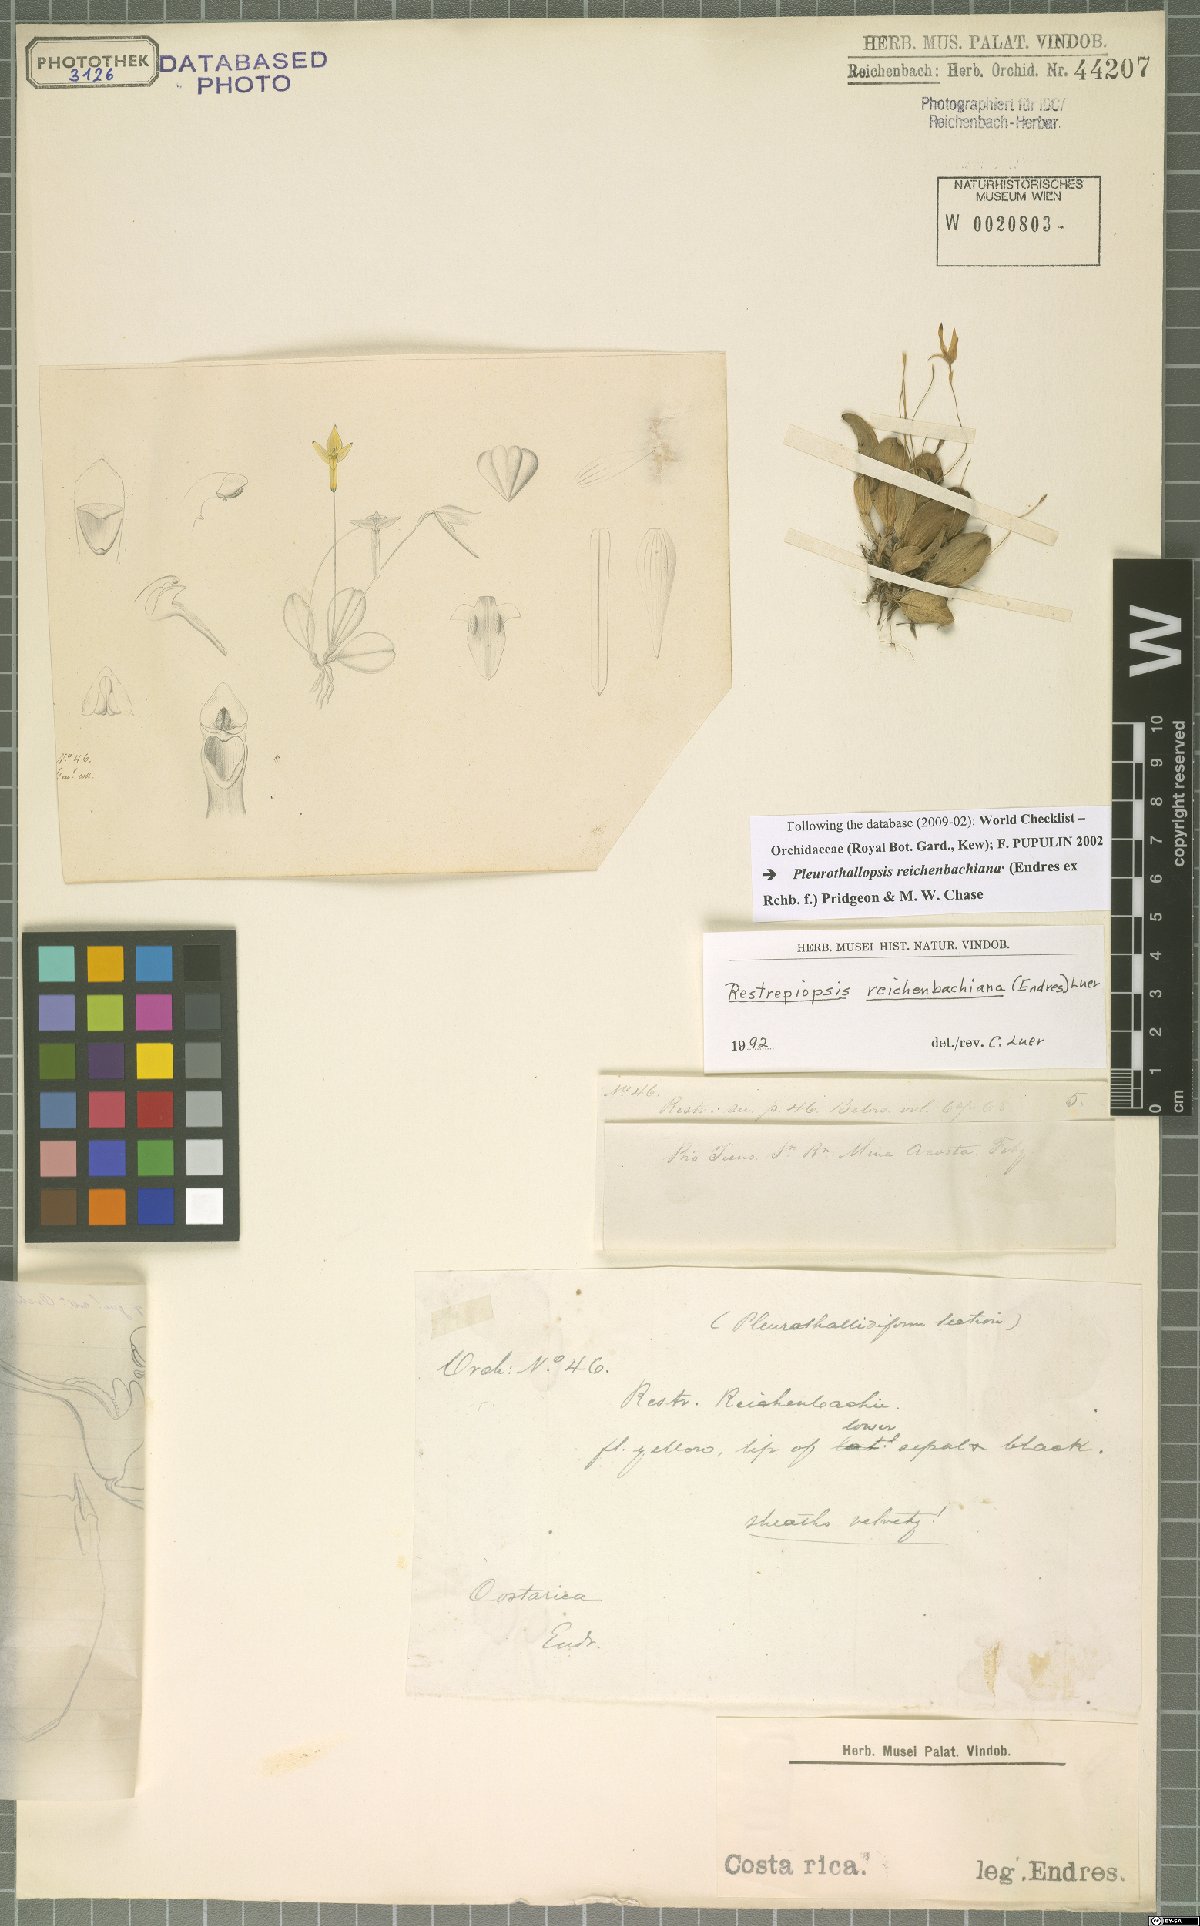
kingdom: Plantae
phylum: Tracheophyta
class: Liliopsida
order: Asparagales
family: Orchidaceae
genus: Pleurothallopsis
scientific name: Pleurothallopsis reichenbachiana
